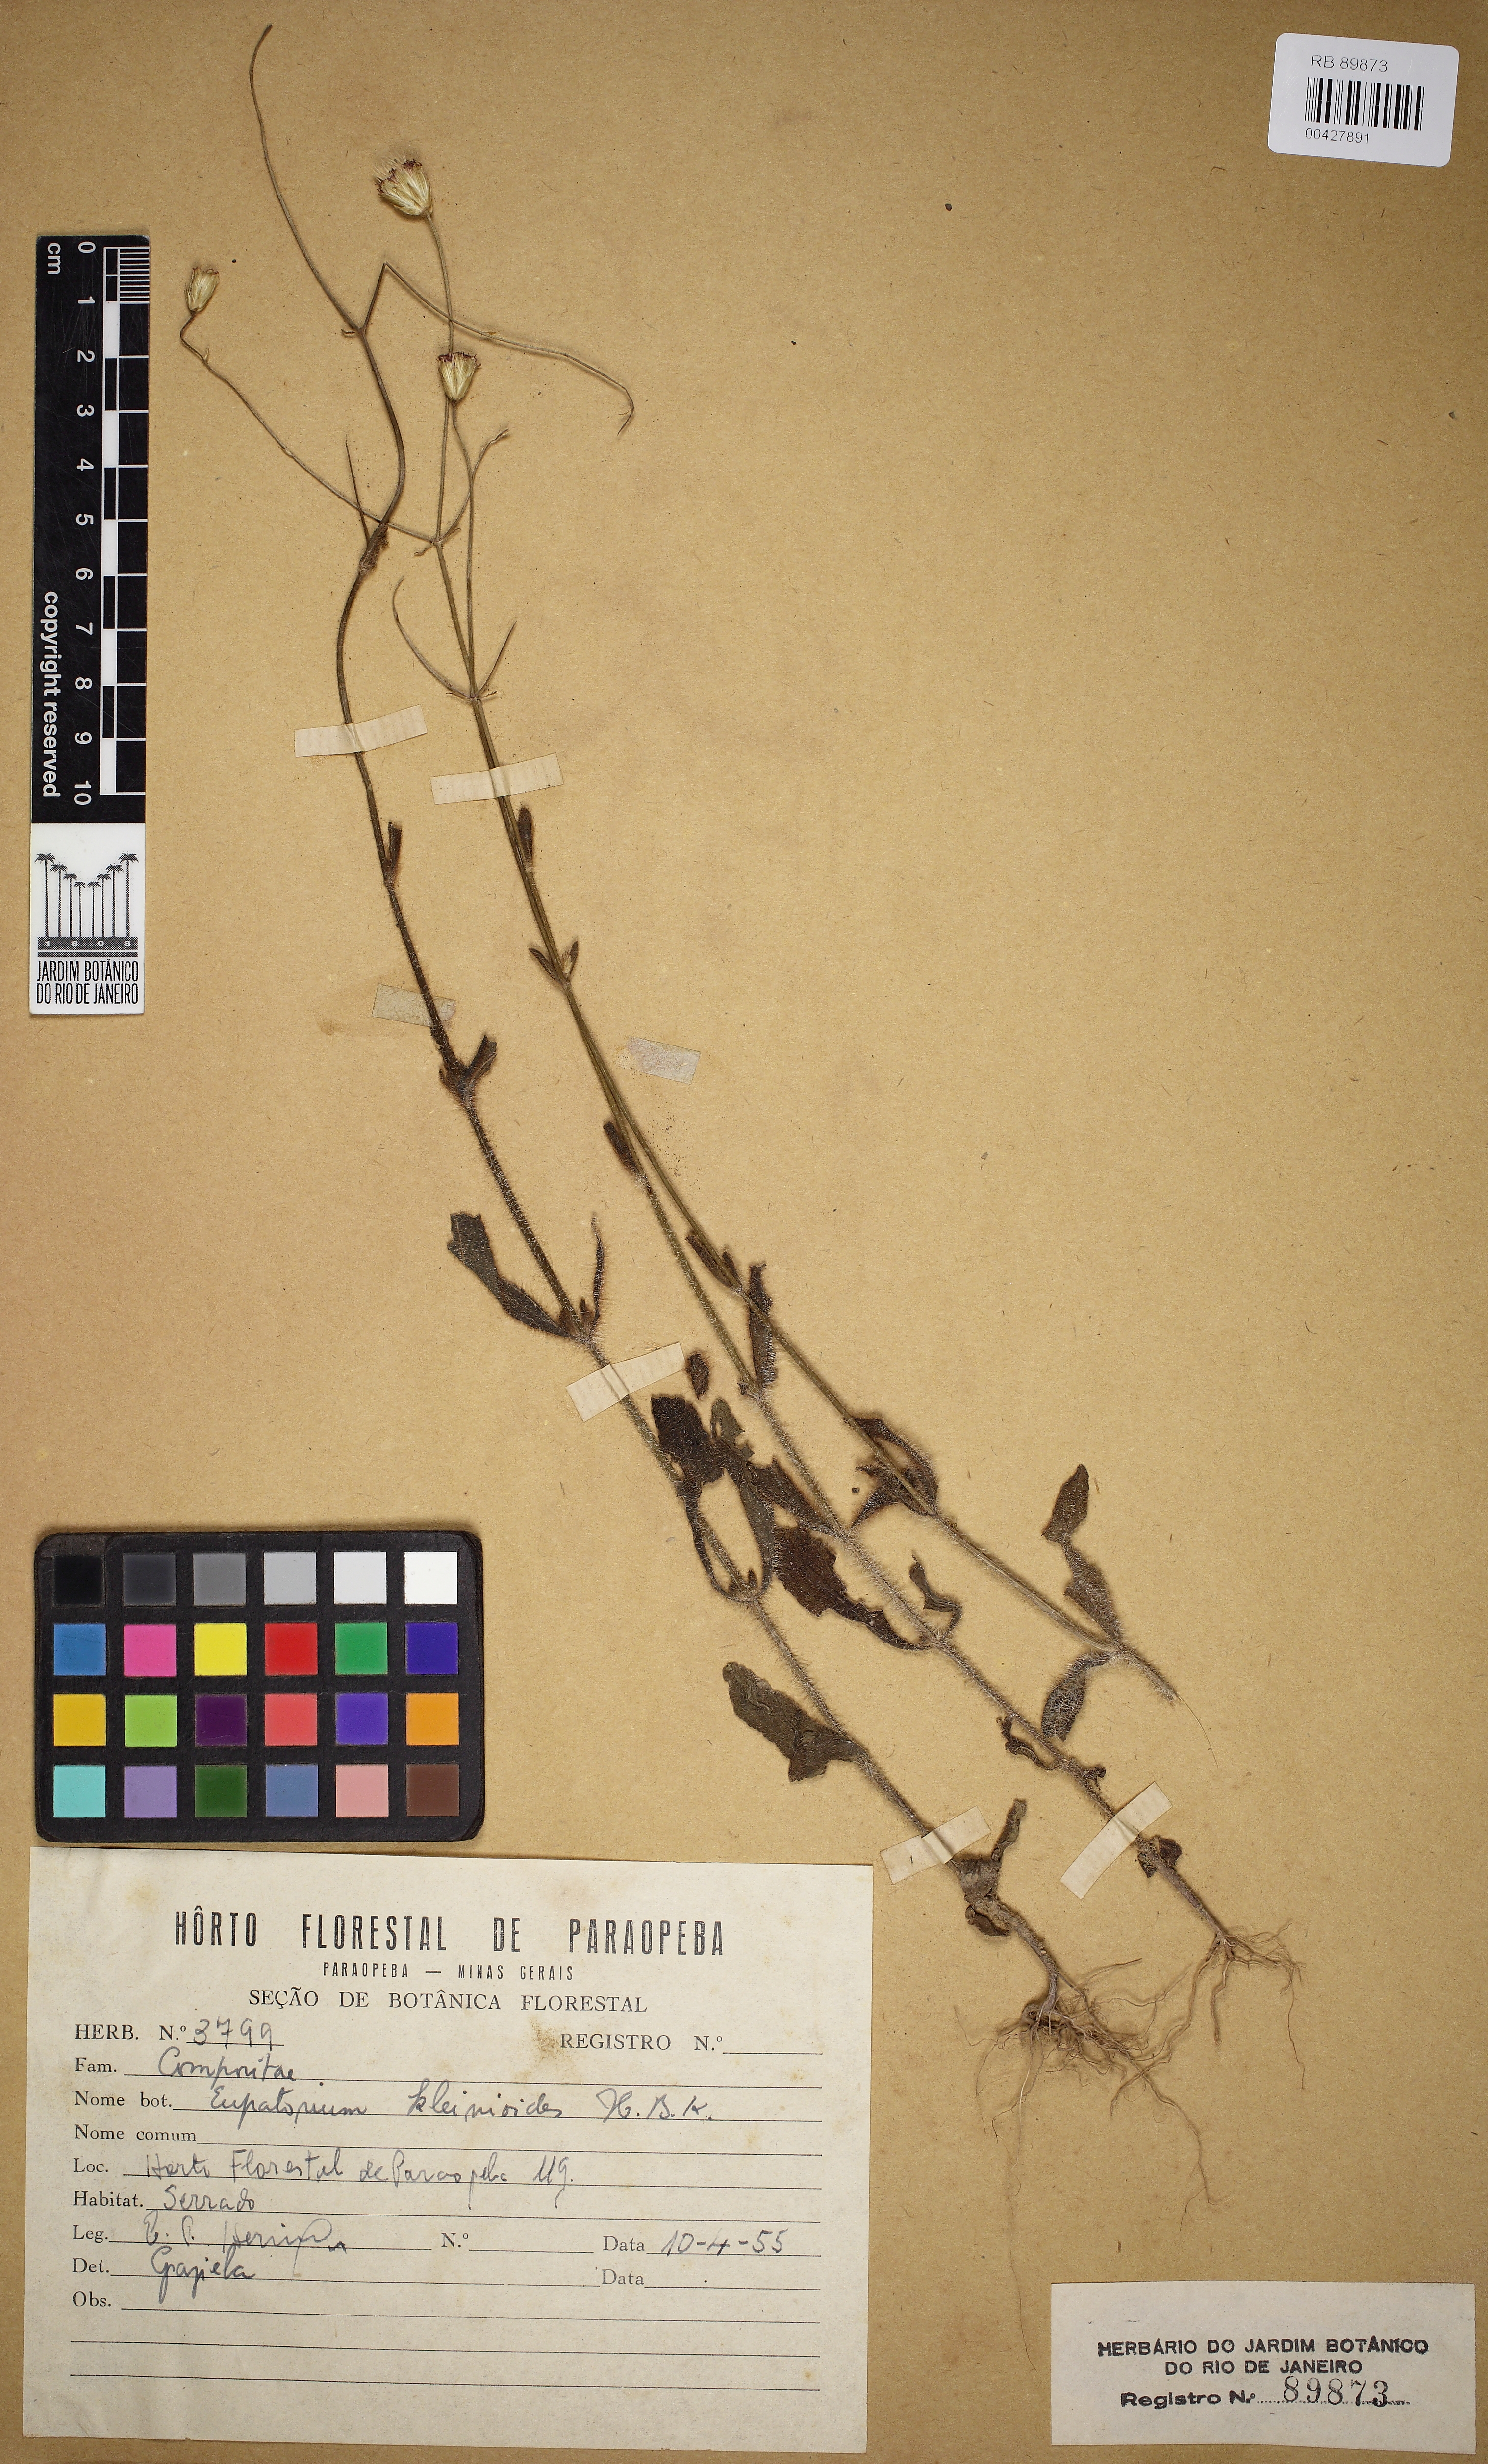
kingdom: Plantae
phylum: Tracheophyta
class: Magnoliopsida
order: Asterales
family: Asteraceae
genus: Praxelis
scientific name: Praxelis kleinioides
